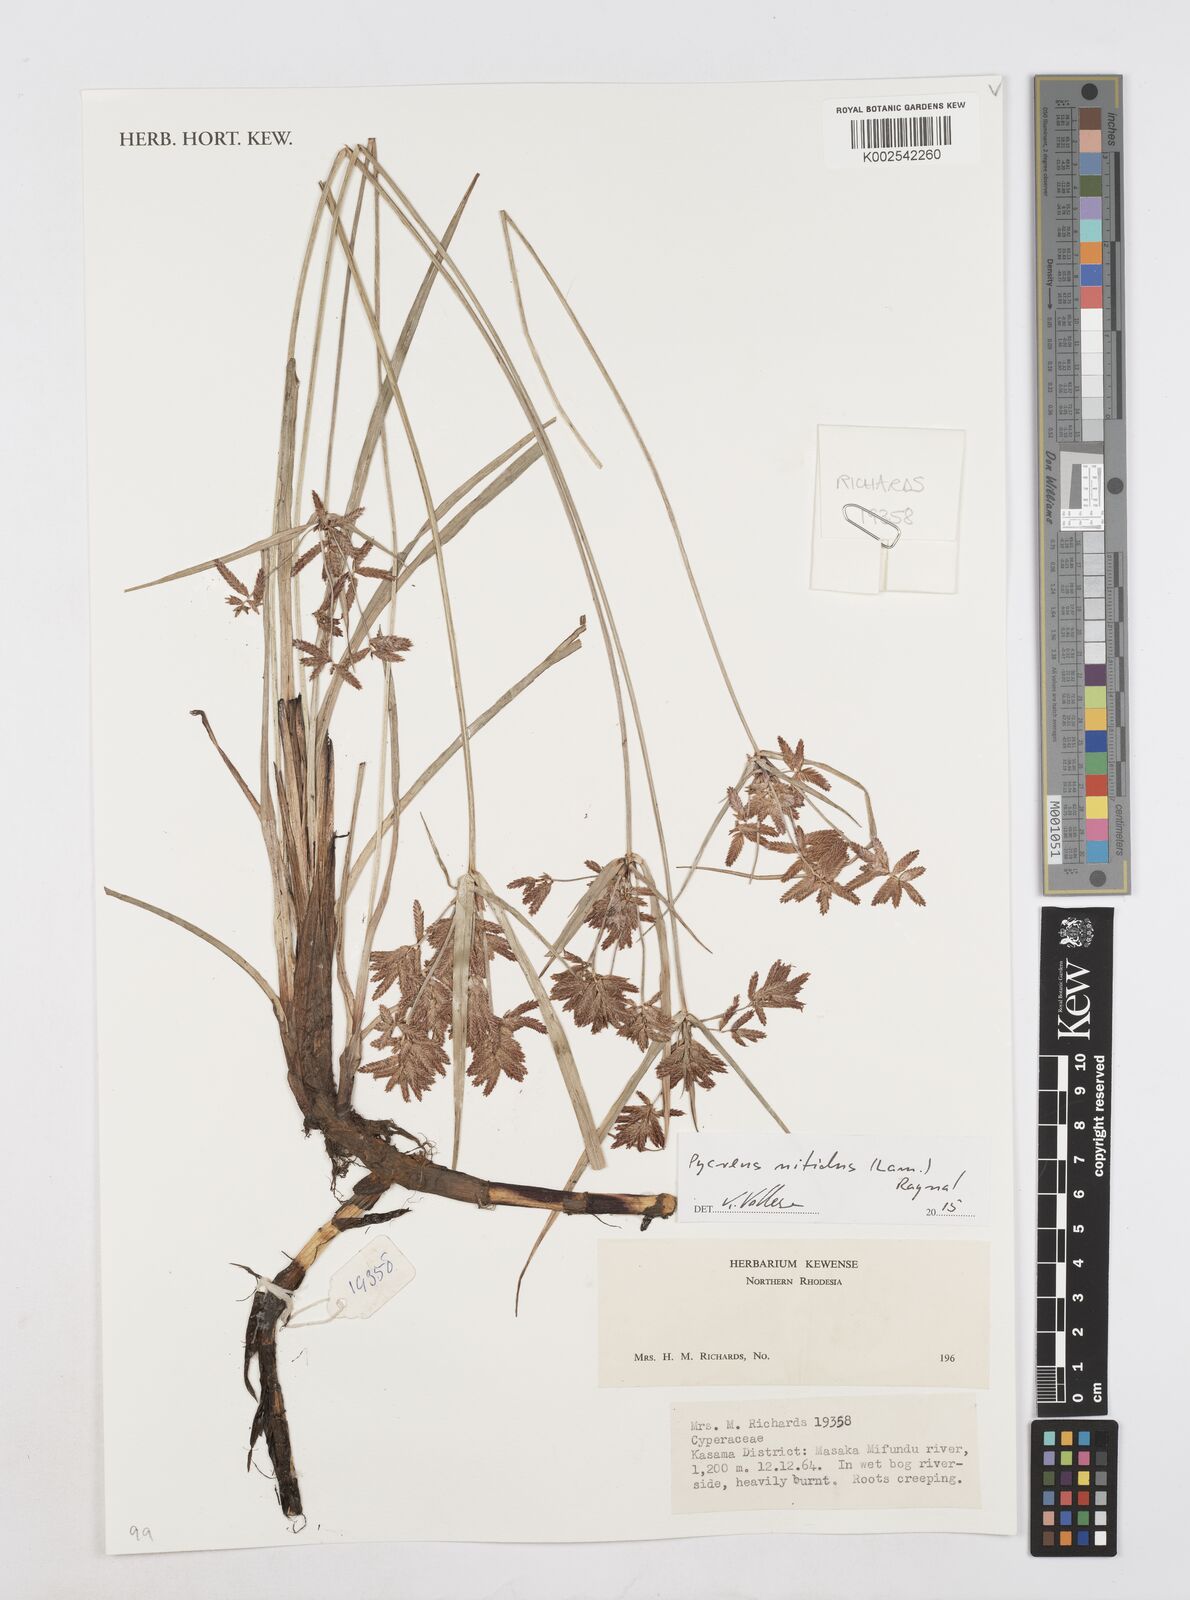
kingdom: Plantae
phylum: Tracheophyta
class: Liliopsida
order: Poales
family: Cyperaceae
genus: Cyperus
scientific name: Cyperus nitidus
